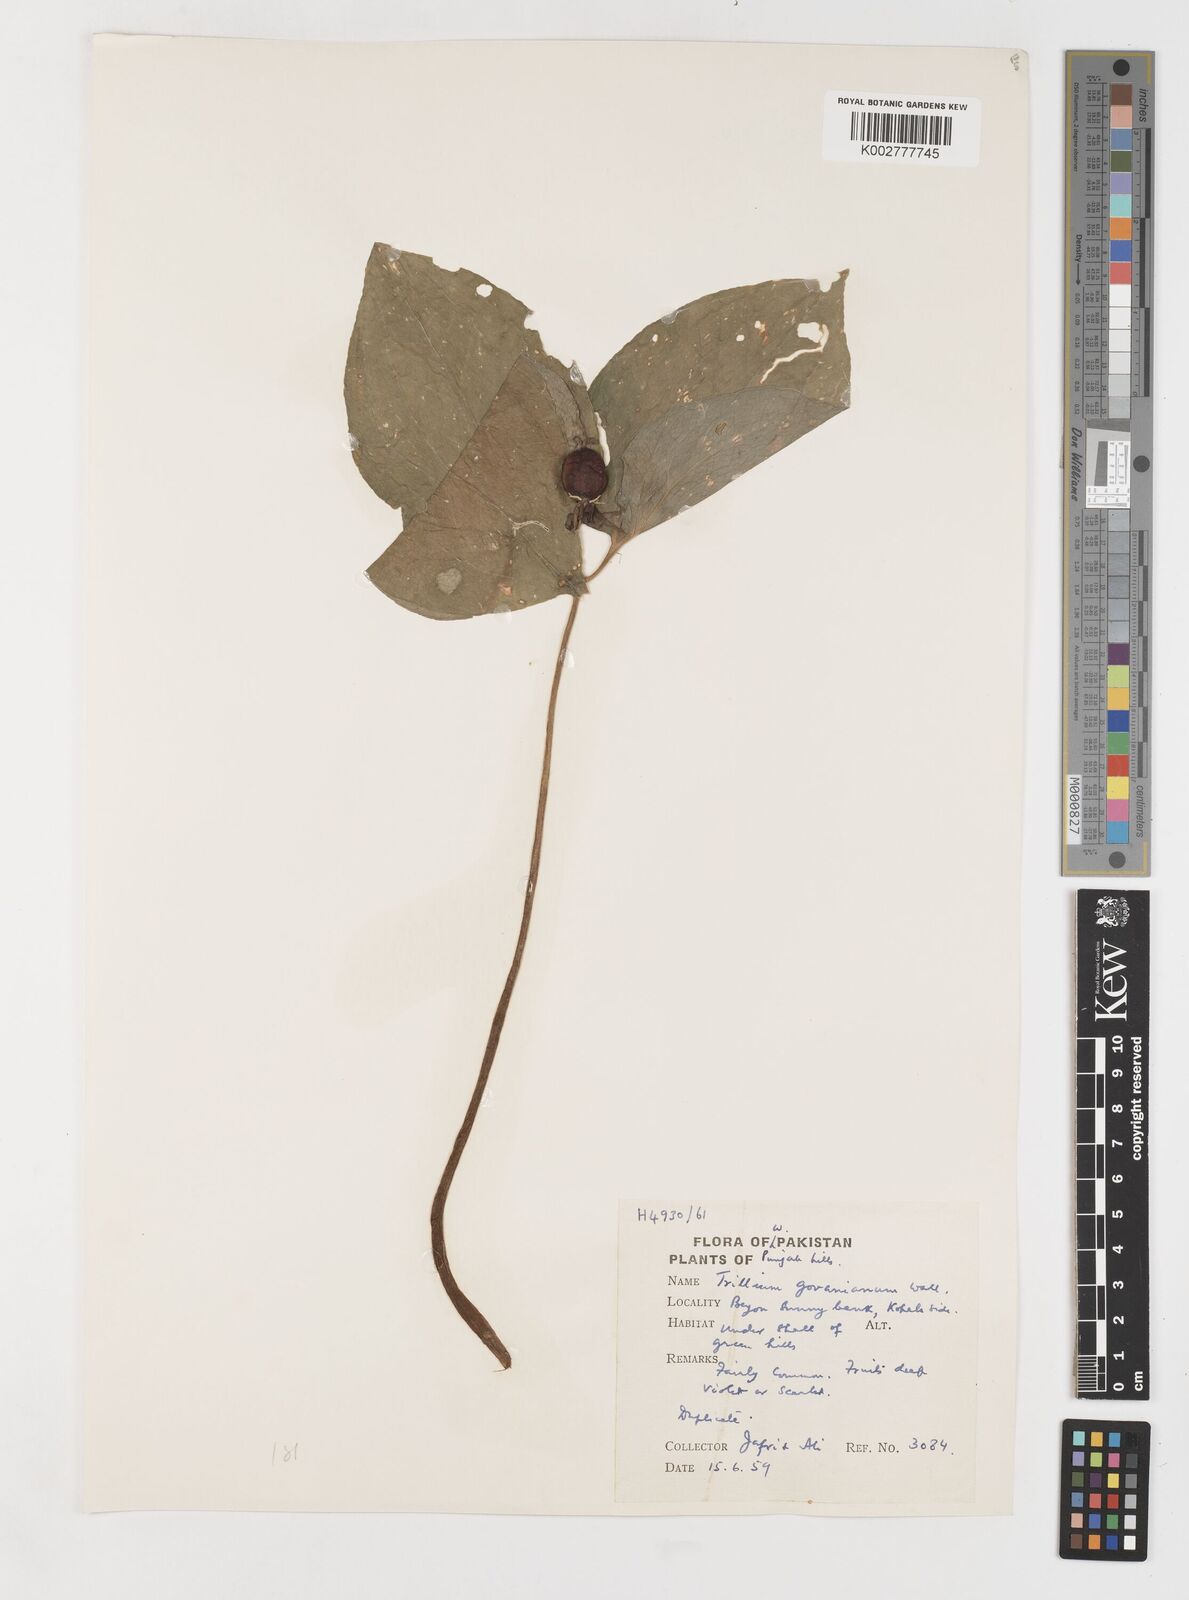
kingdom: Plantae
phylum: Tracheophyta
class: Liliopsida
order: Liliales
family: Melanthiaceae
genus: Trillium
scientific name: Trillium govanianum
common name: Himalayan trillium
